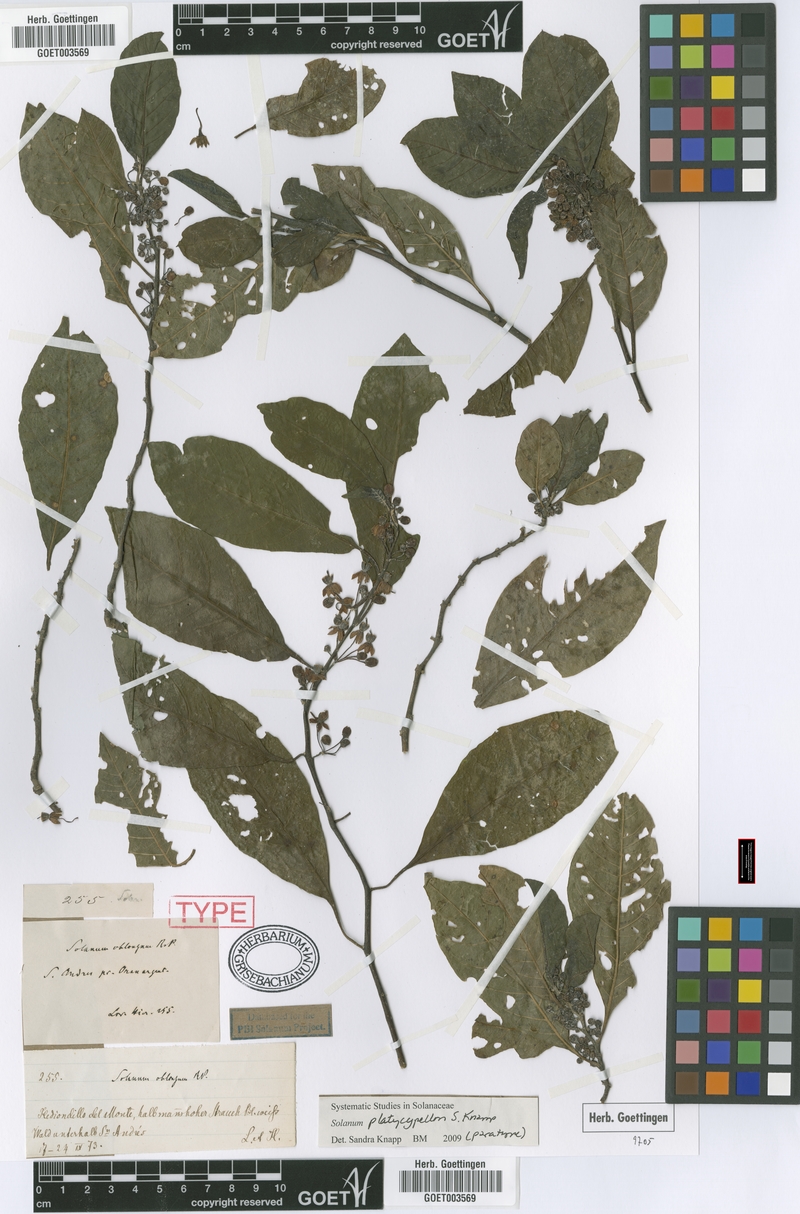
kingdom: Plantae
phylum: Tracheophyta
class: Magnoliopsida
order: Solanales
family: Solanaceae
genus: Solanum
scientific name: Solanum platycypellon
